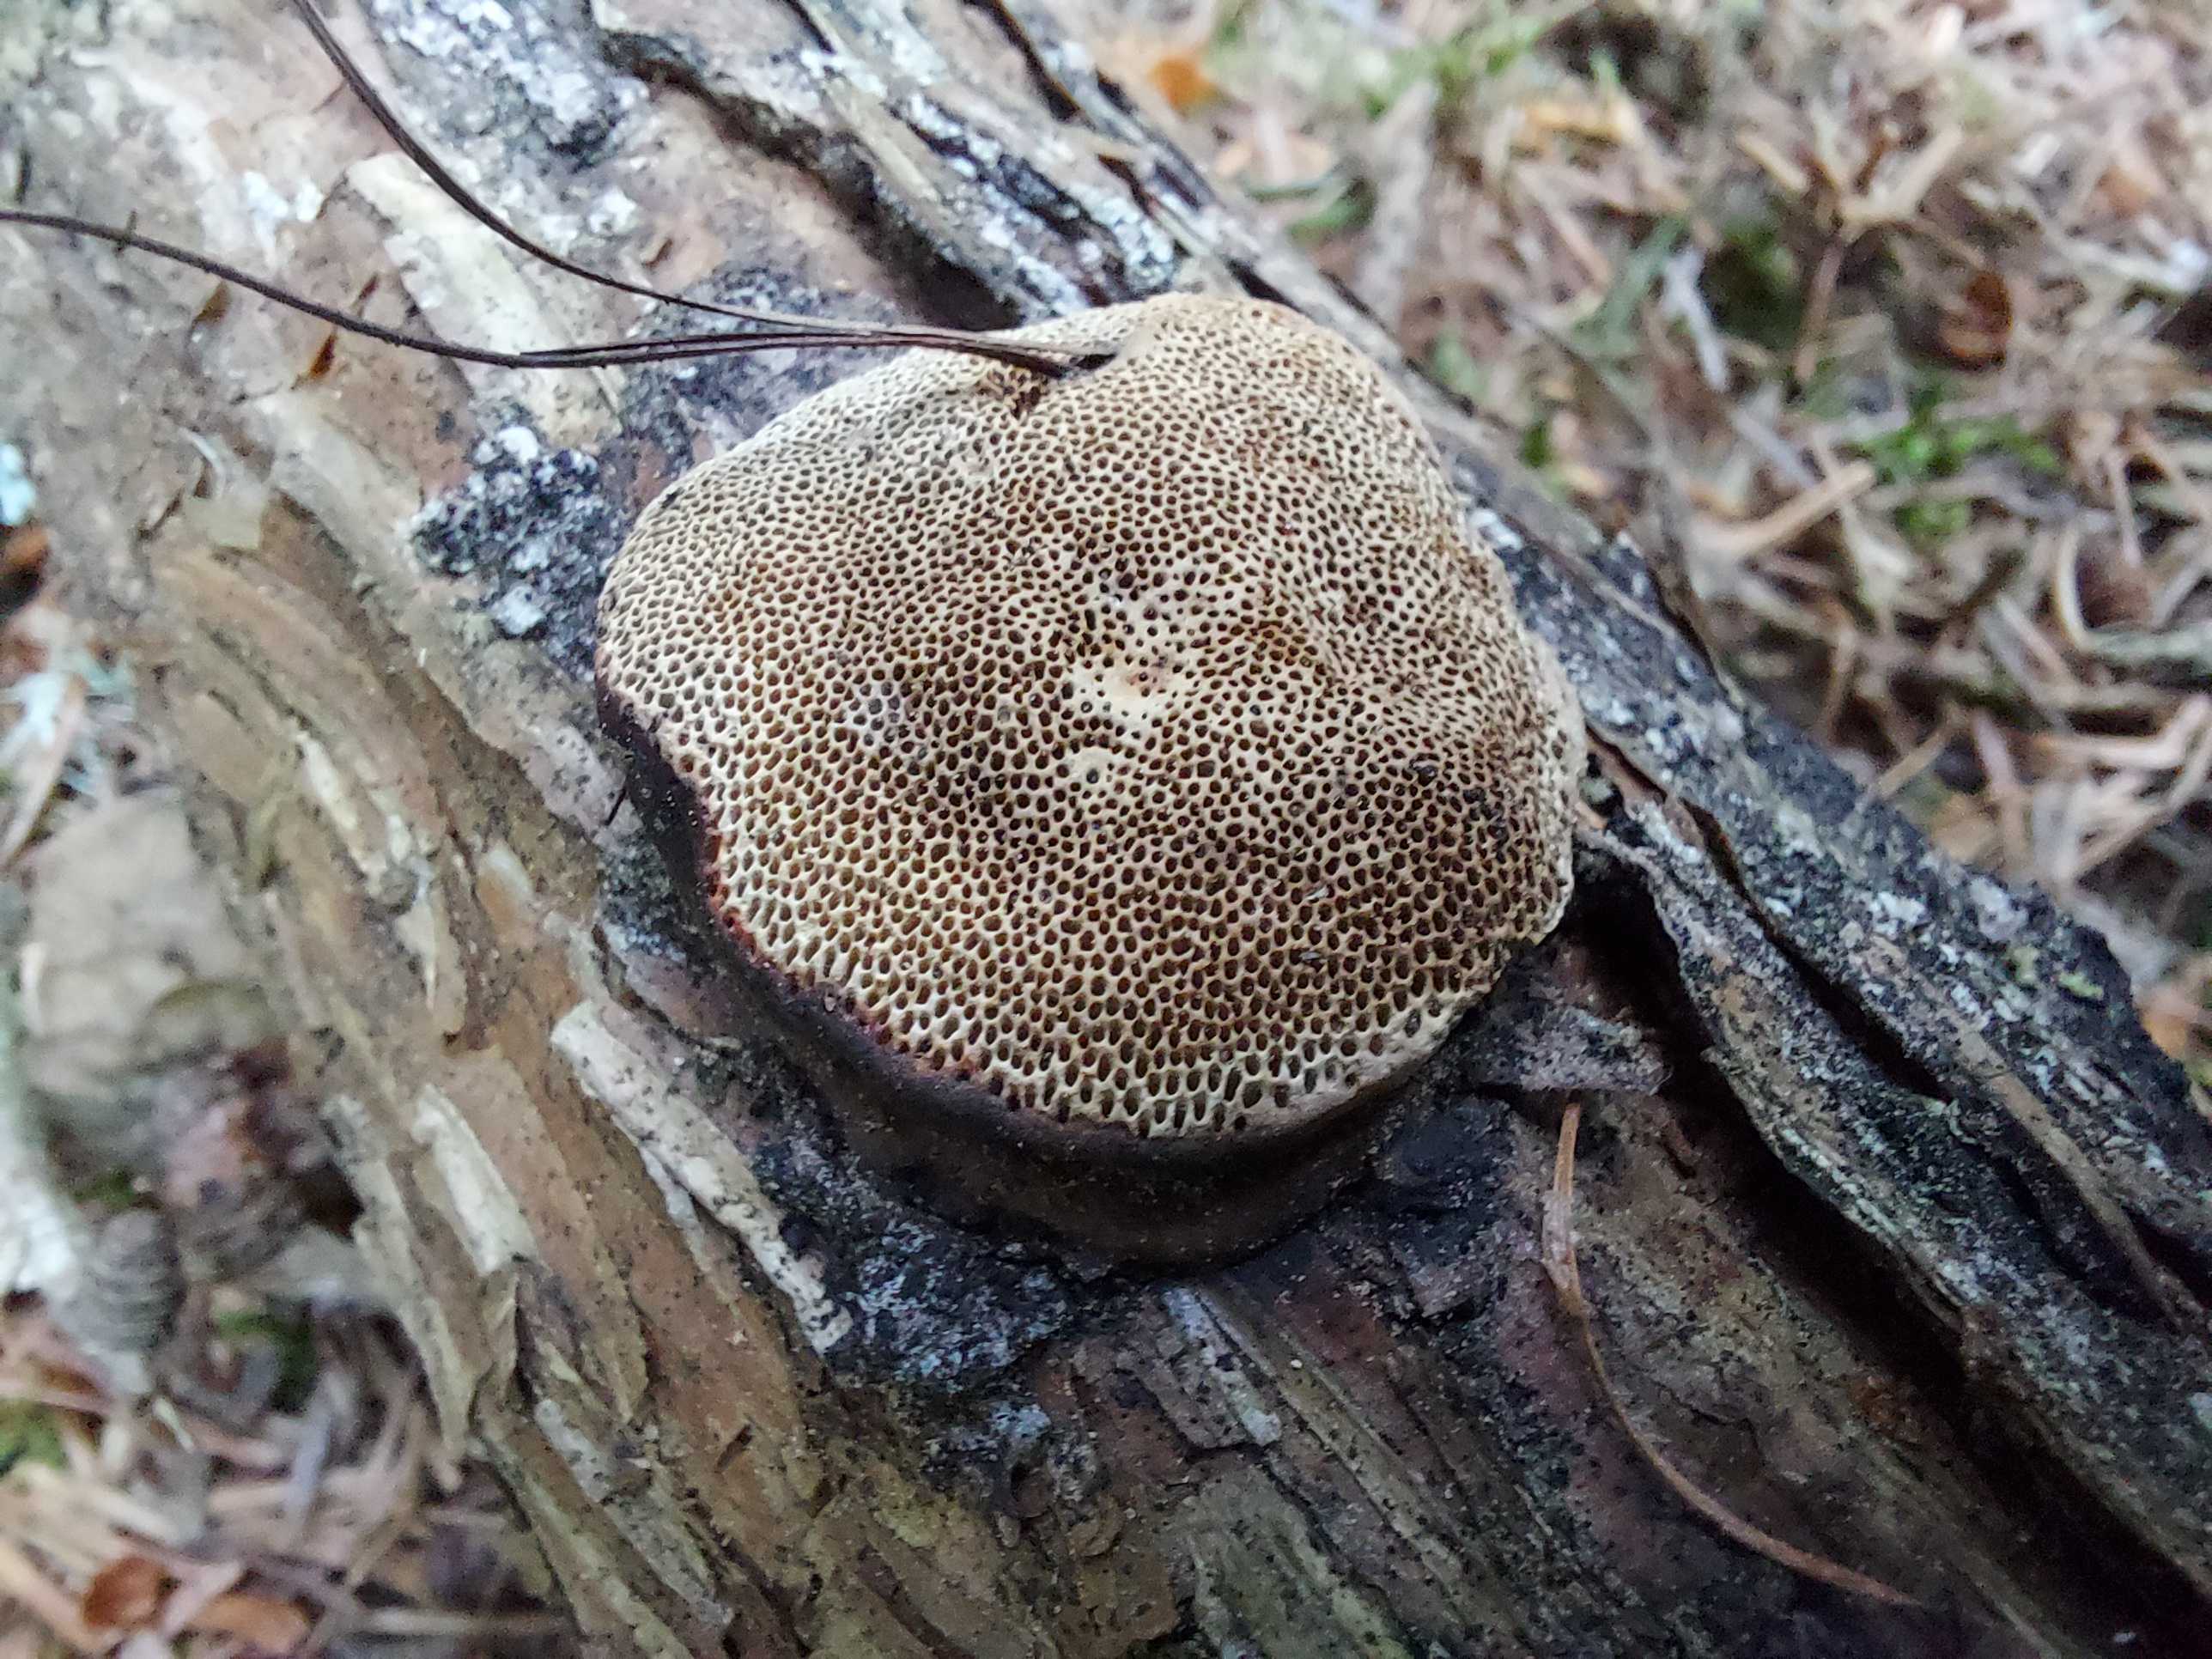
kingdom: Fungi
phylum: Basidiomycota
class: Agaricomycetes
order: Polyporales
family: Fomitopsidaceae
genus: Fomitopsis
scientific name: Fomitopsis pinicola
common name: randbæltet hovporesvamp
